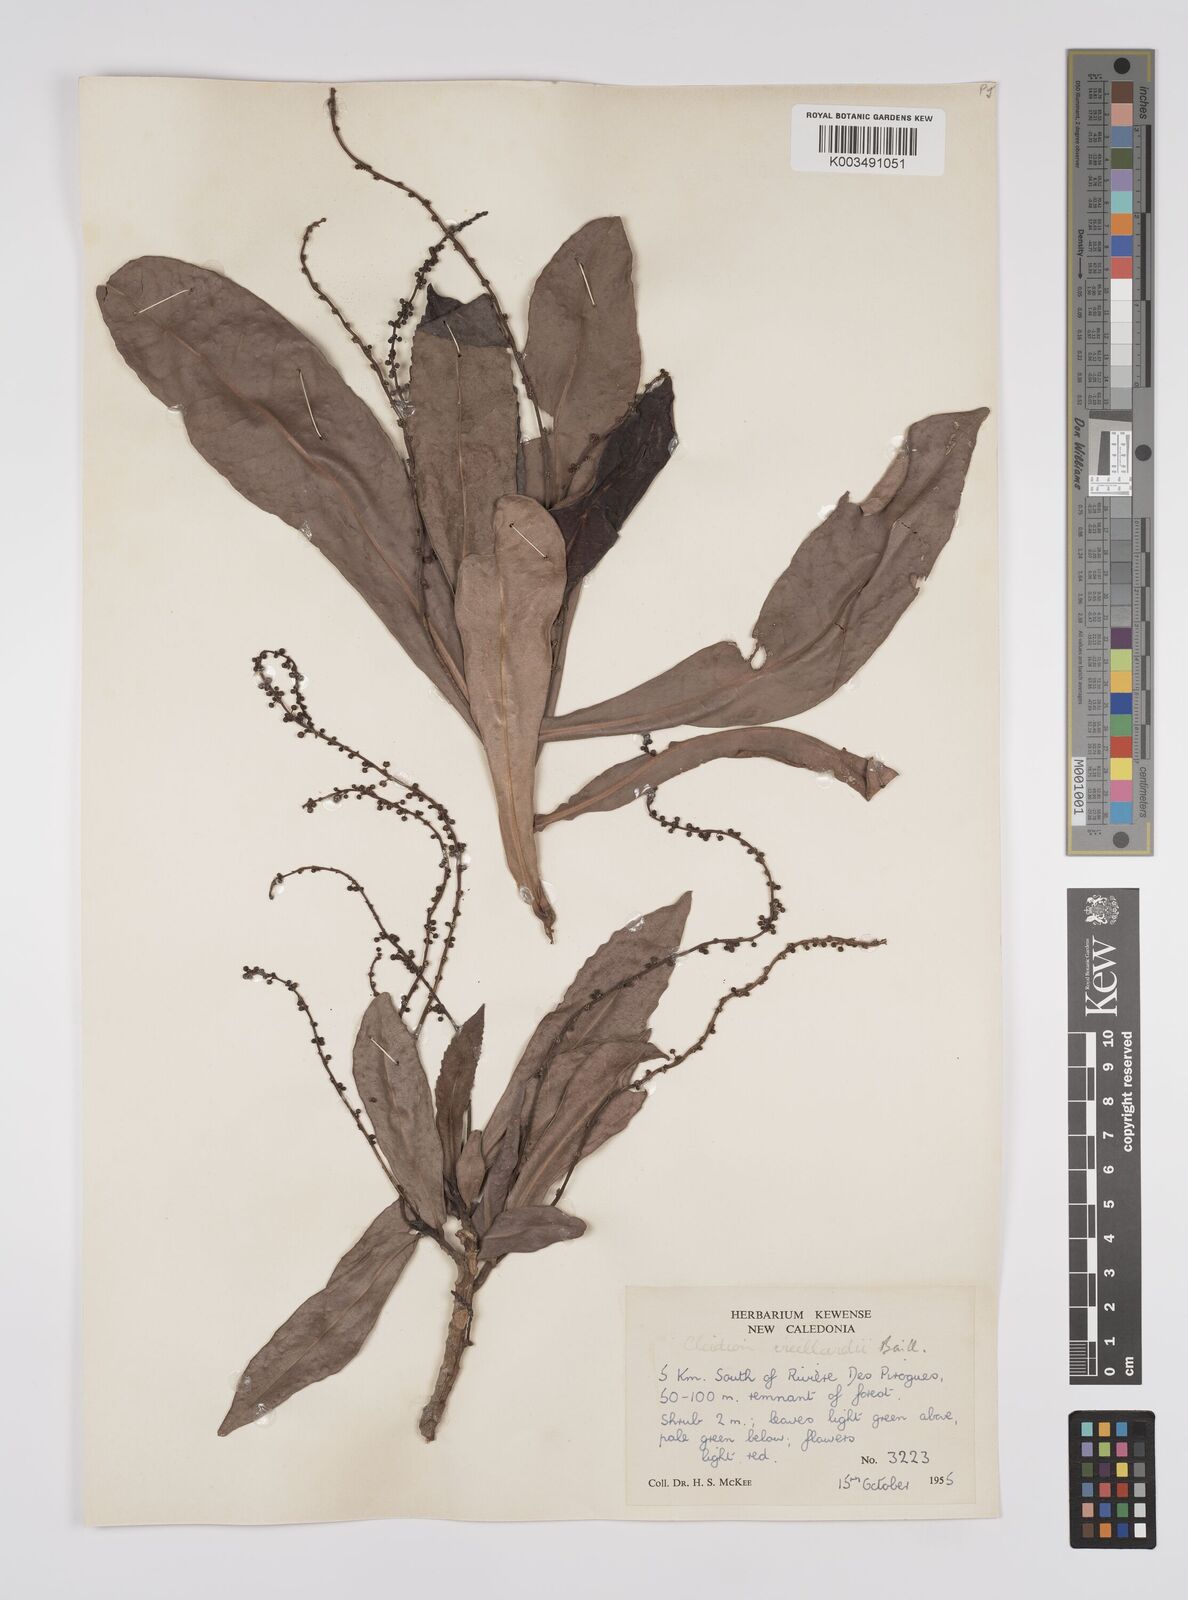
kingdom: Plantae
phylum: Tracheophyta
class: Magnoliopsida
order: Malpighiales
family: Euphorbiaceae
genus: Cleidion
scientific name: Cleidion vieillardii
